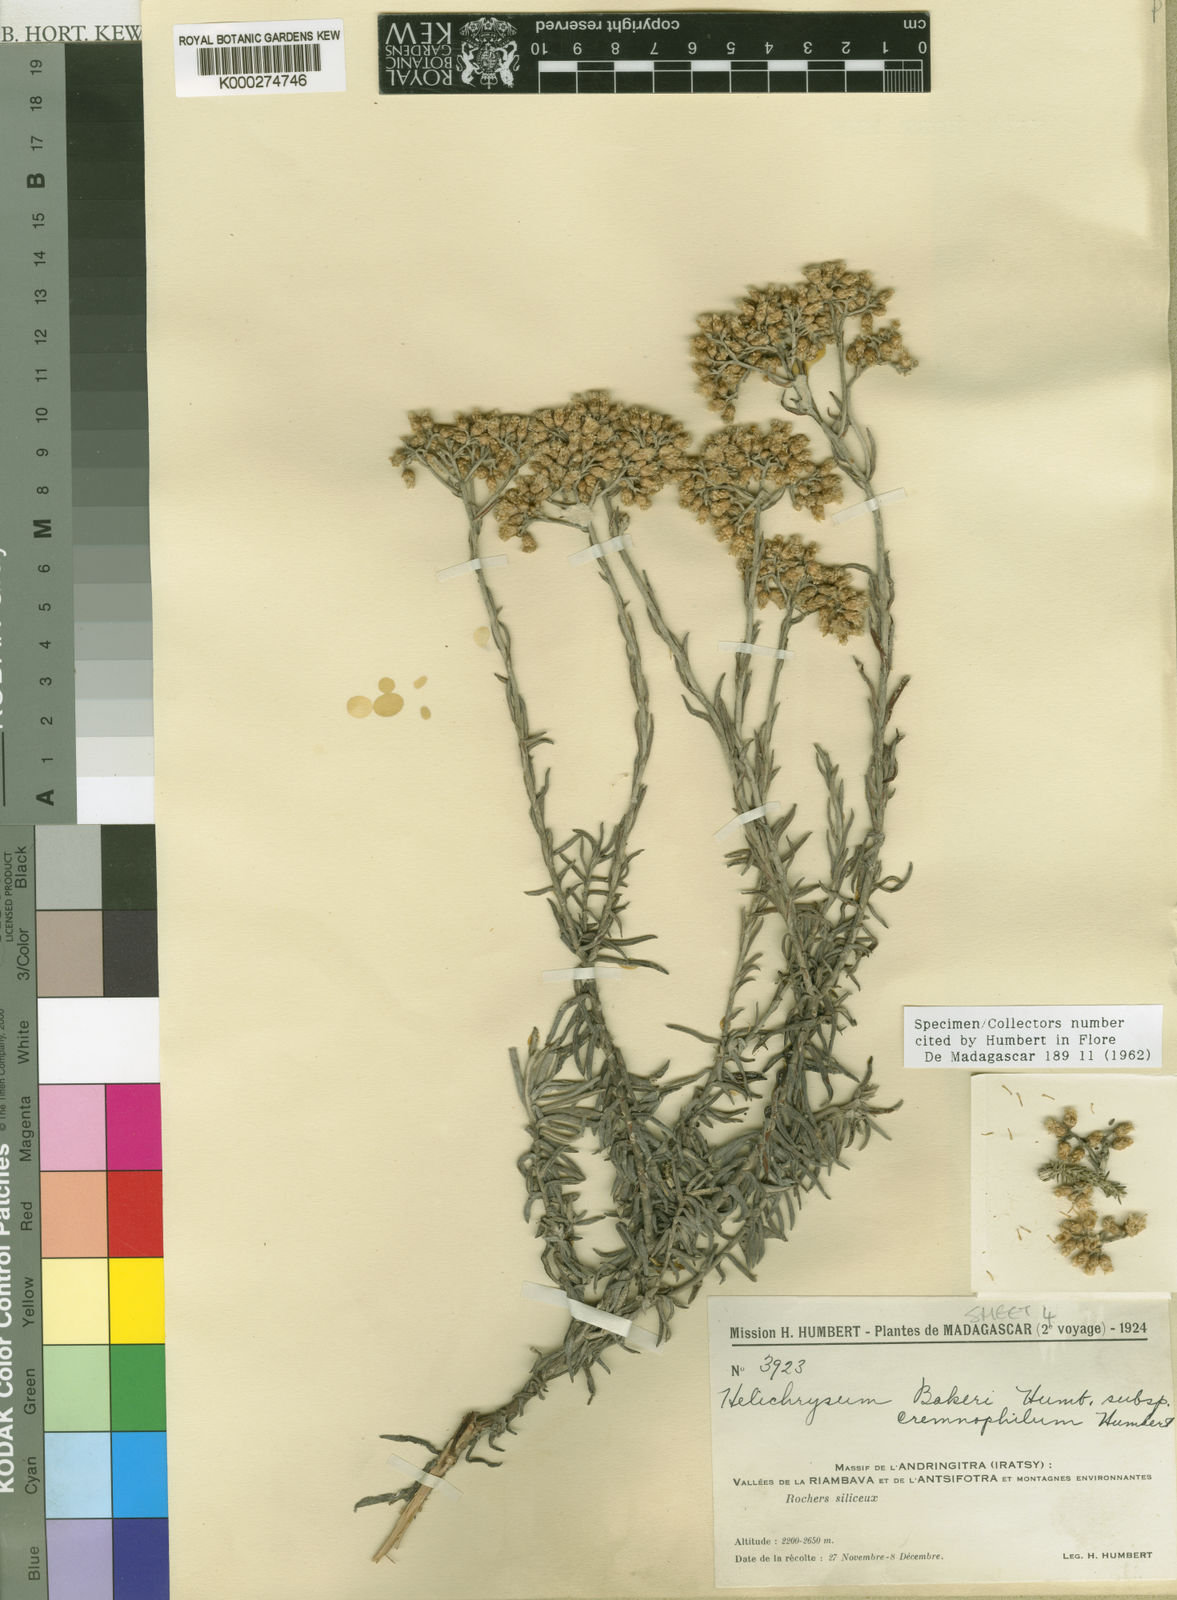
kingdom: Plantae
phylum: Tracheophyta
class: Magnoliopsida
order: Asterales
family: Asteraceae
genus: Helichrysum
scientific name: Helichrysum cremnophilum
